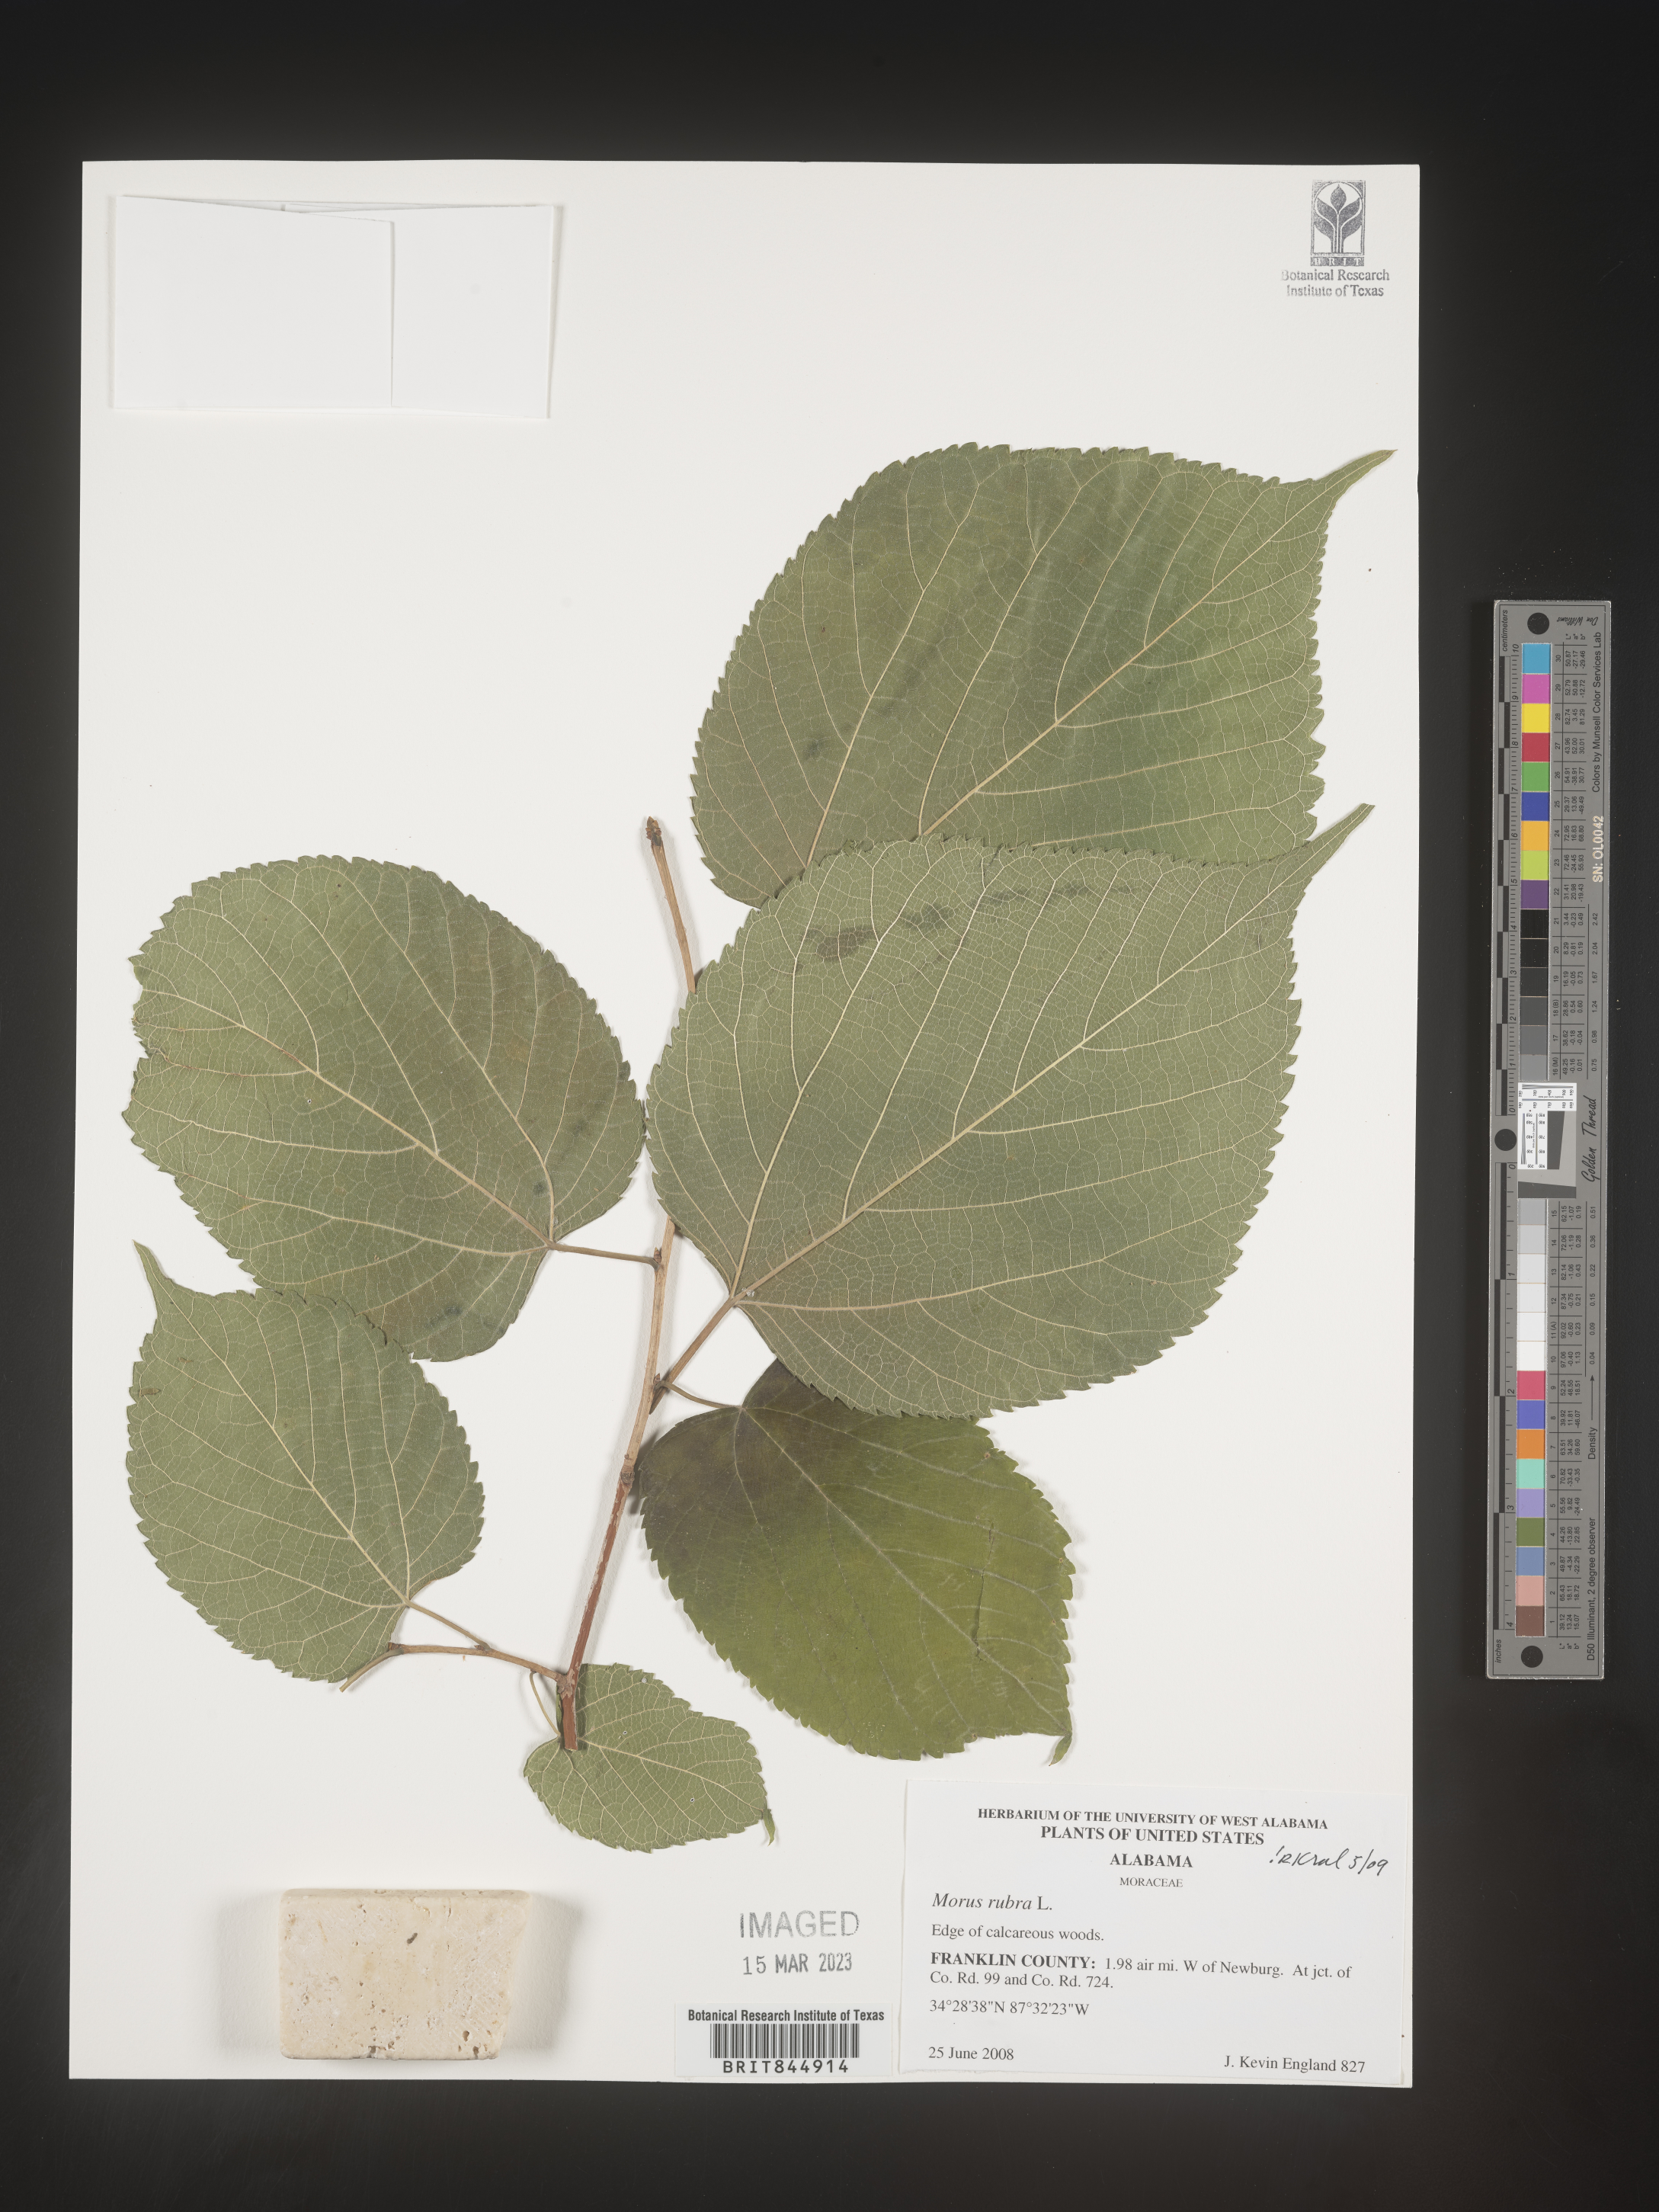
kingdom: Plantae
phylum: Tracheophyta
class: Magnoliopsida
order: Rosales
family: Moraceae
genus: Morus
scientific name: Morus rubra
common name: Red mulberry
